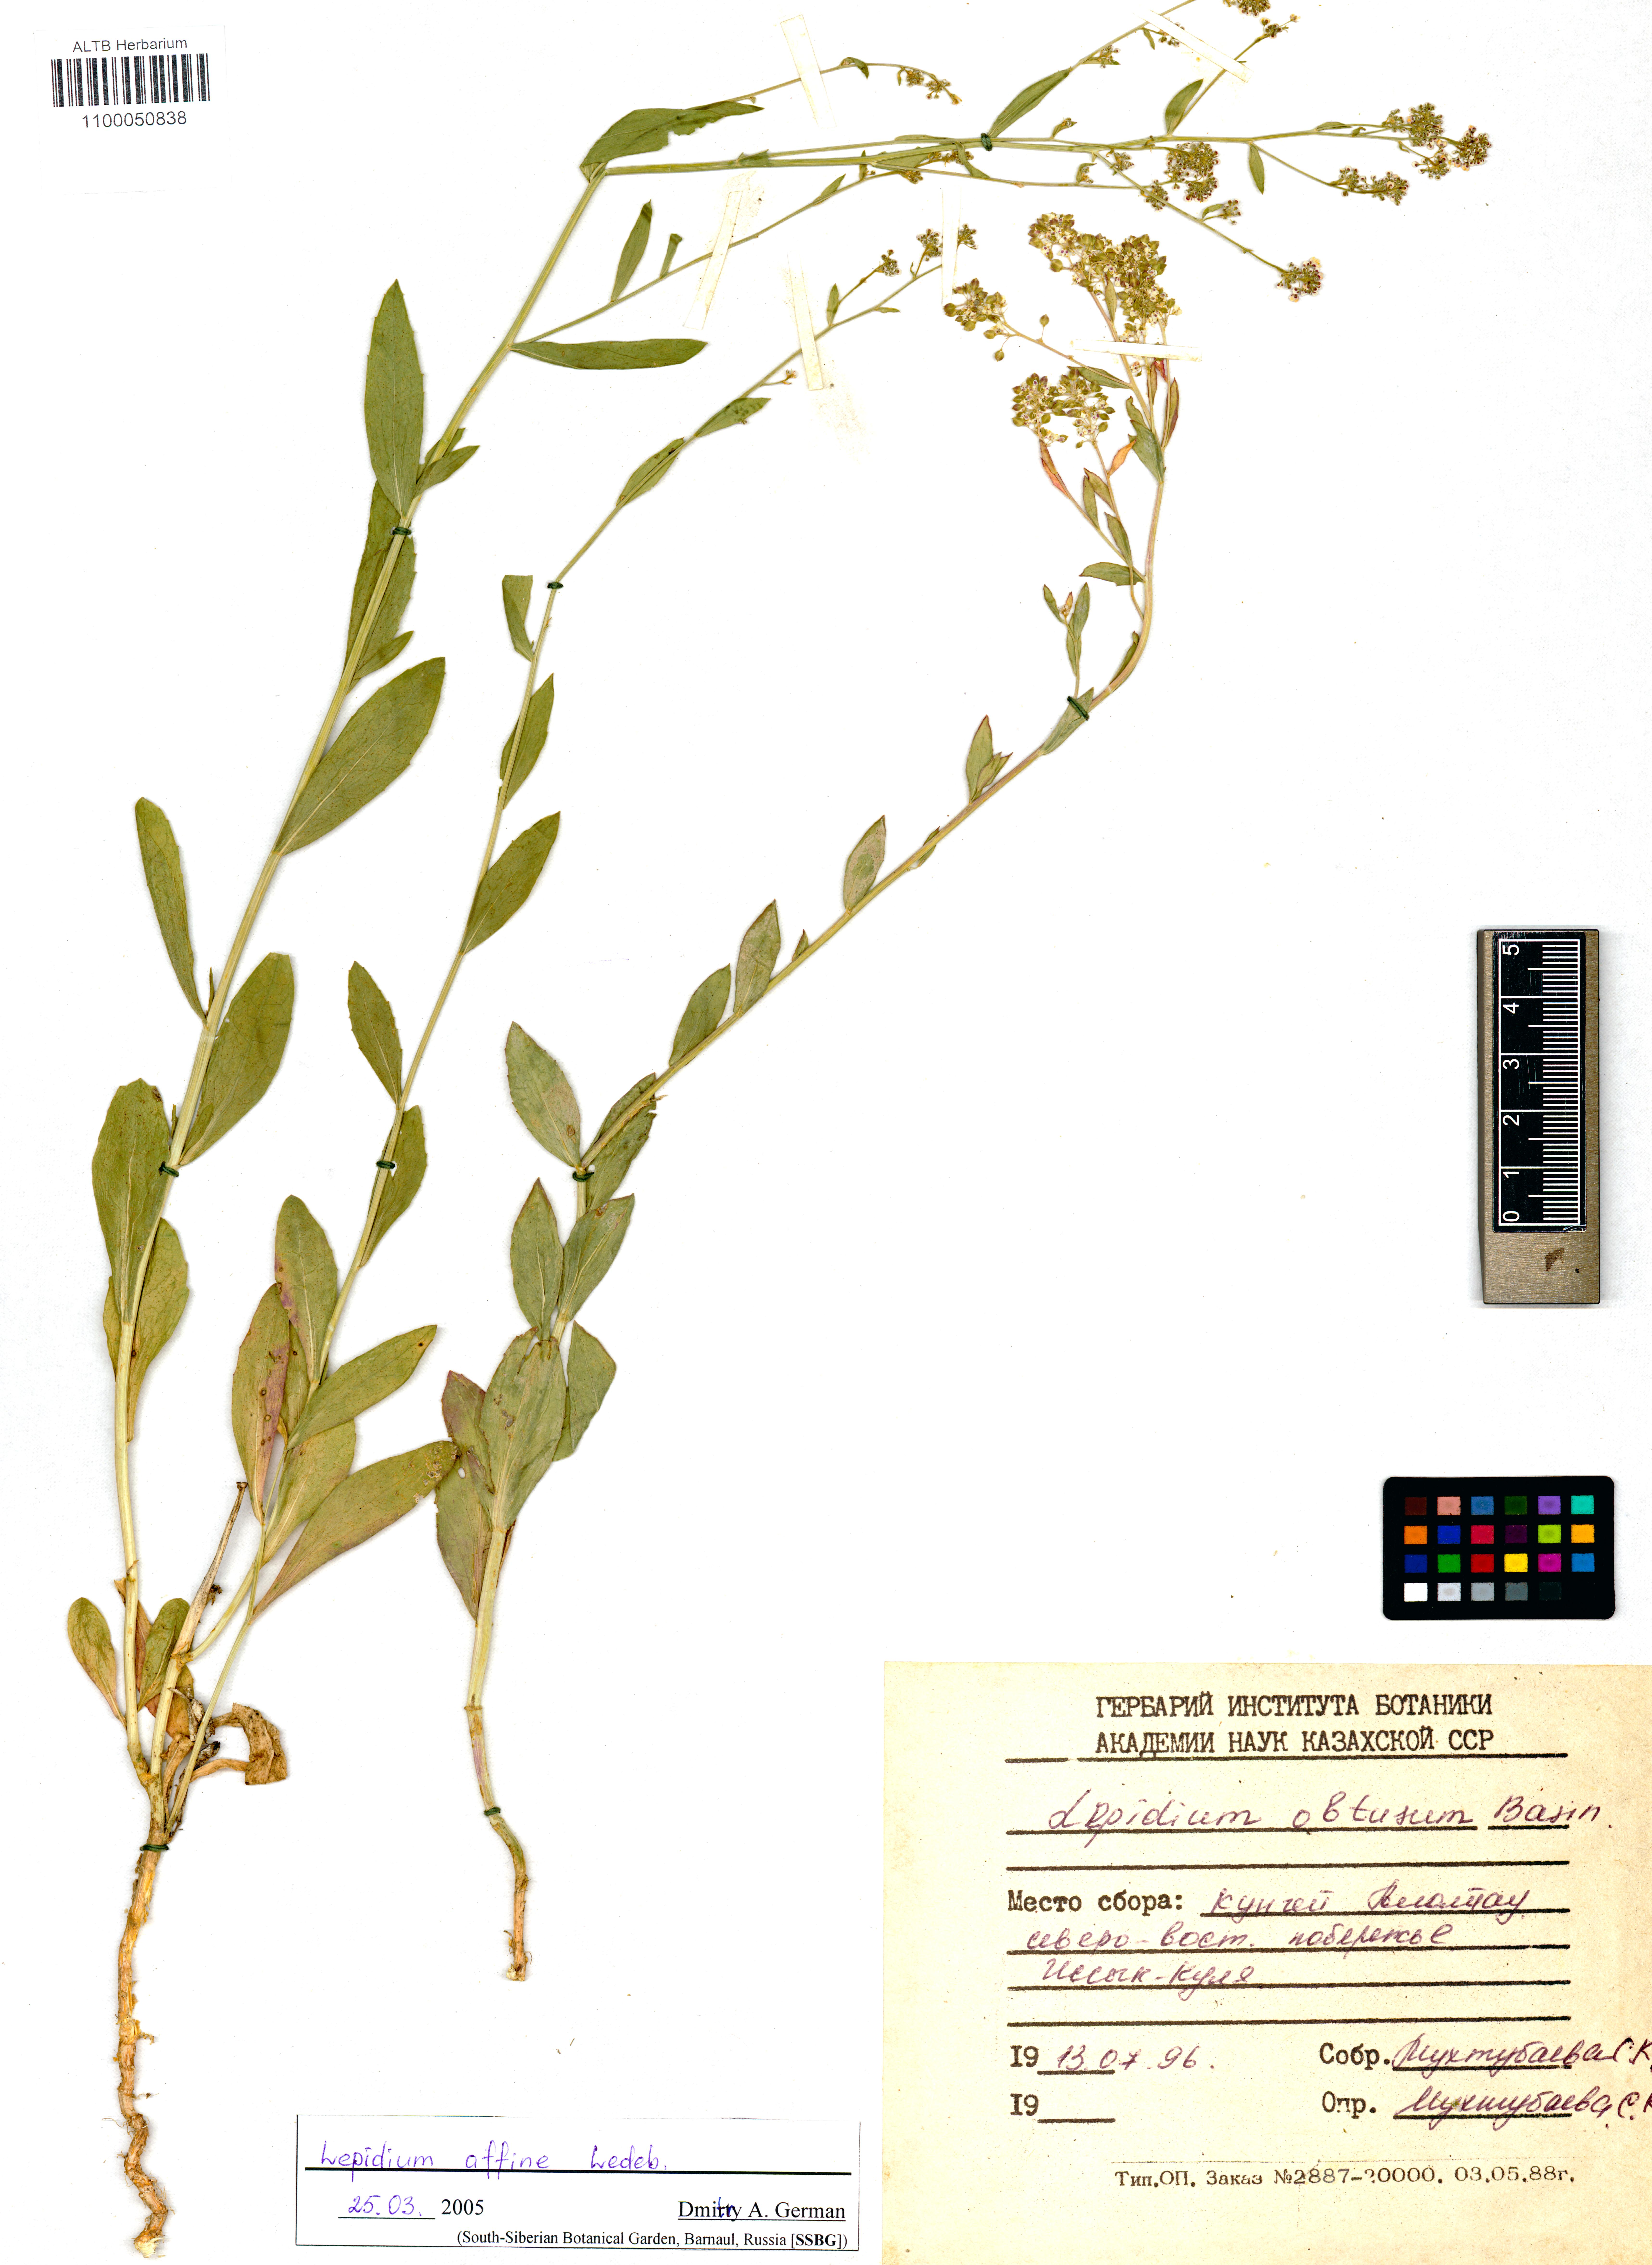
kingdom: Plantae
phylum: Tracheophyta
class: Magnoliopsida
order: Brassicales
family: Brassicaceae
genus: Lepidium
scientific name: Lepidium latifolium
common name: Dittander
